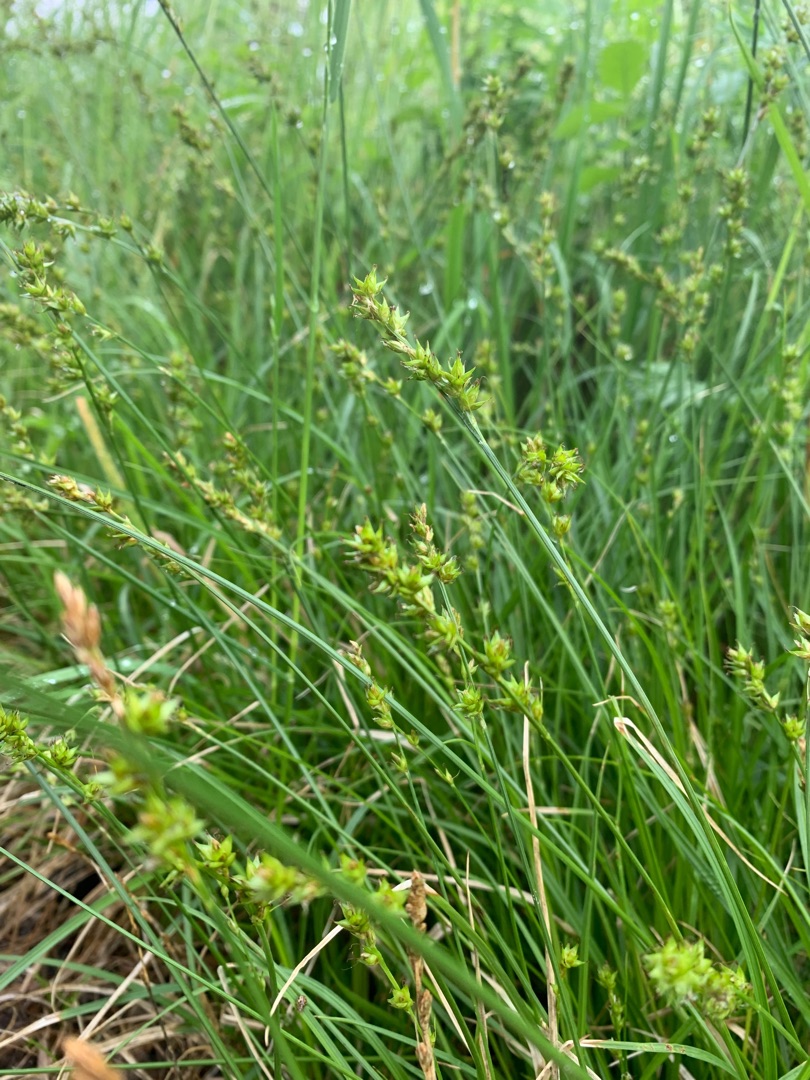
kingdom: Plantae
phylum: Tracheophyta
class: Liliopsida
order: Poales
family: Cyperaceae
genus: Carex
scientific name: Carex divulsa
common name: Mellembrudt star
